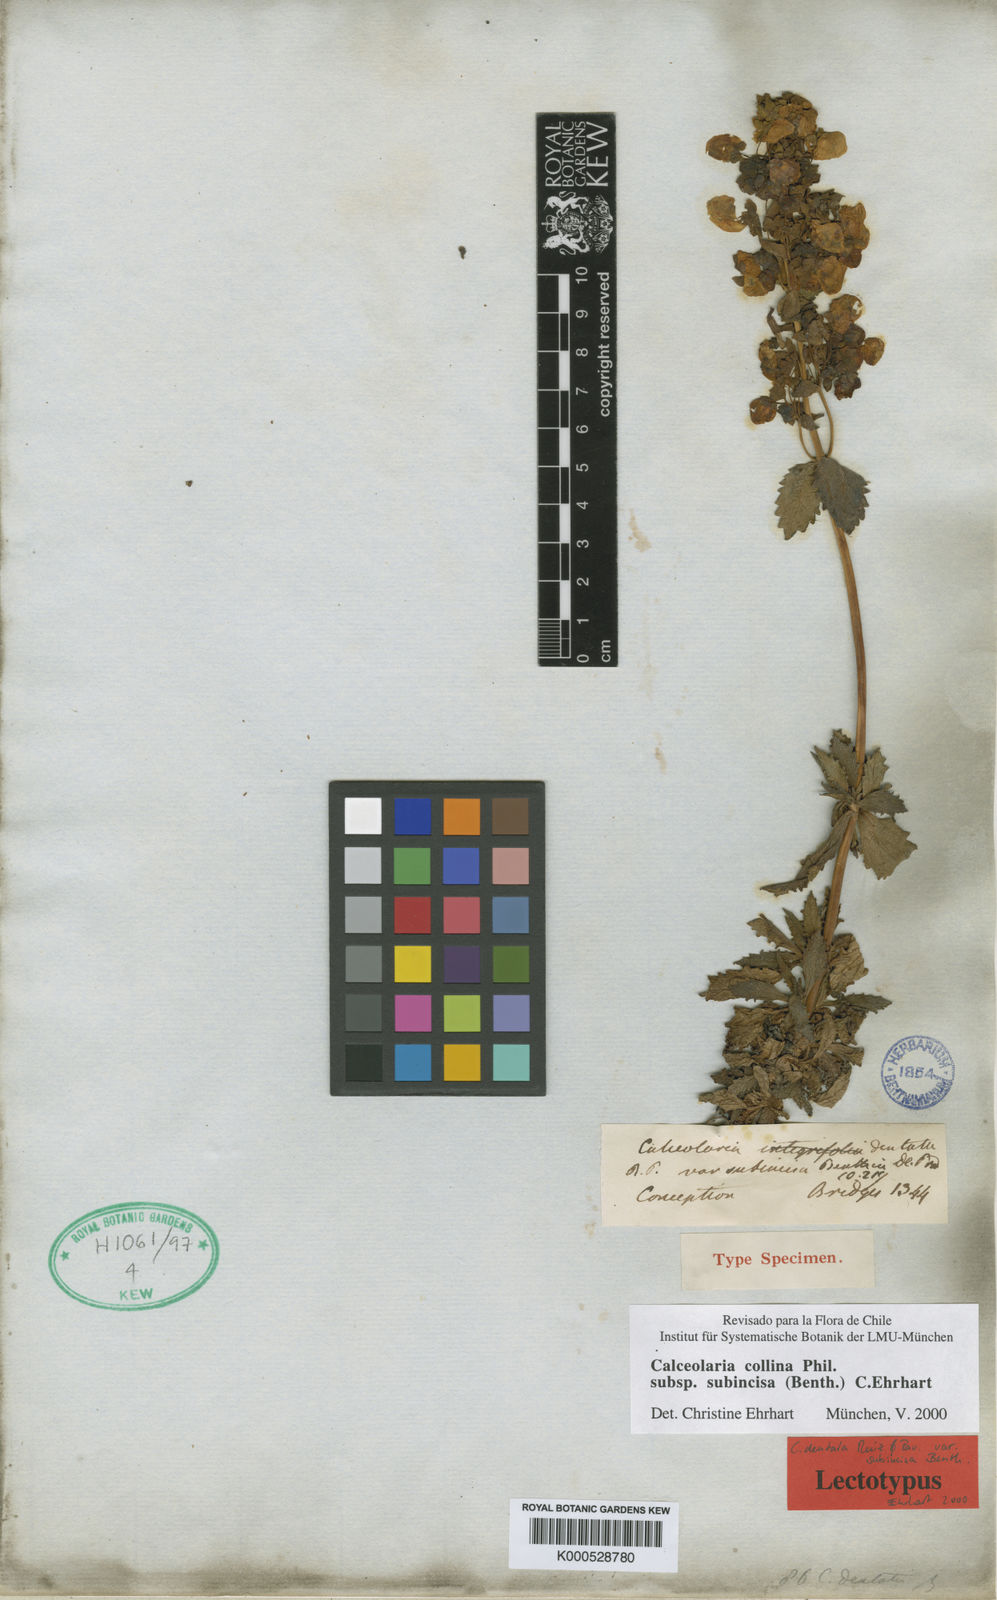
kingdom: Plantae
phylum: Tracheophyta
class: Magnoliopsida
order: Lamiales
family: Calceolariaceae
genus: Calceolaria
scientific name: Calceolaria collina
